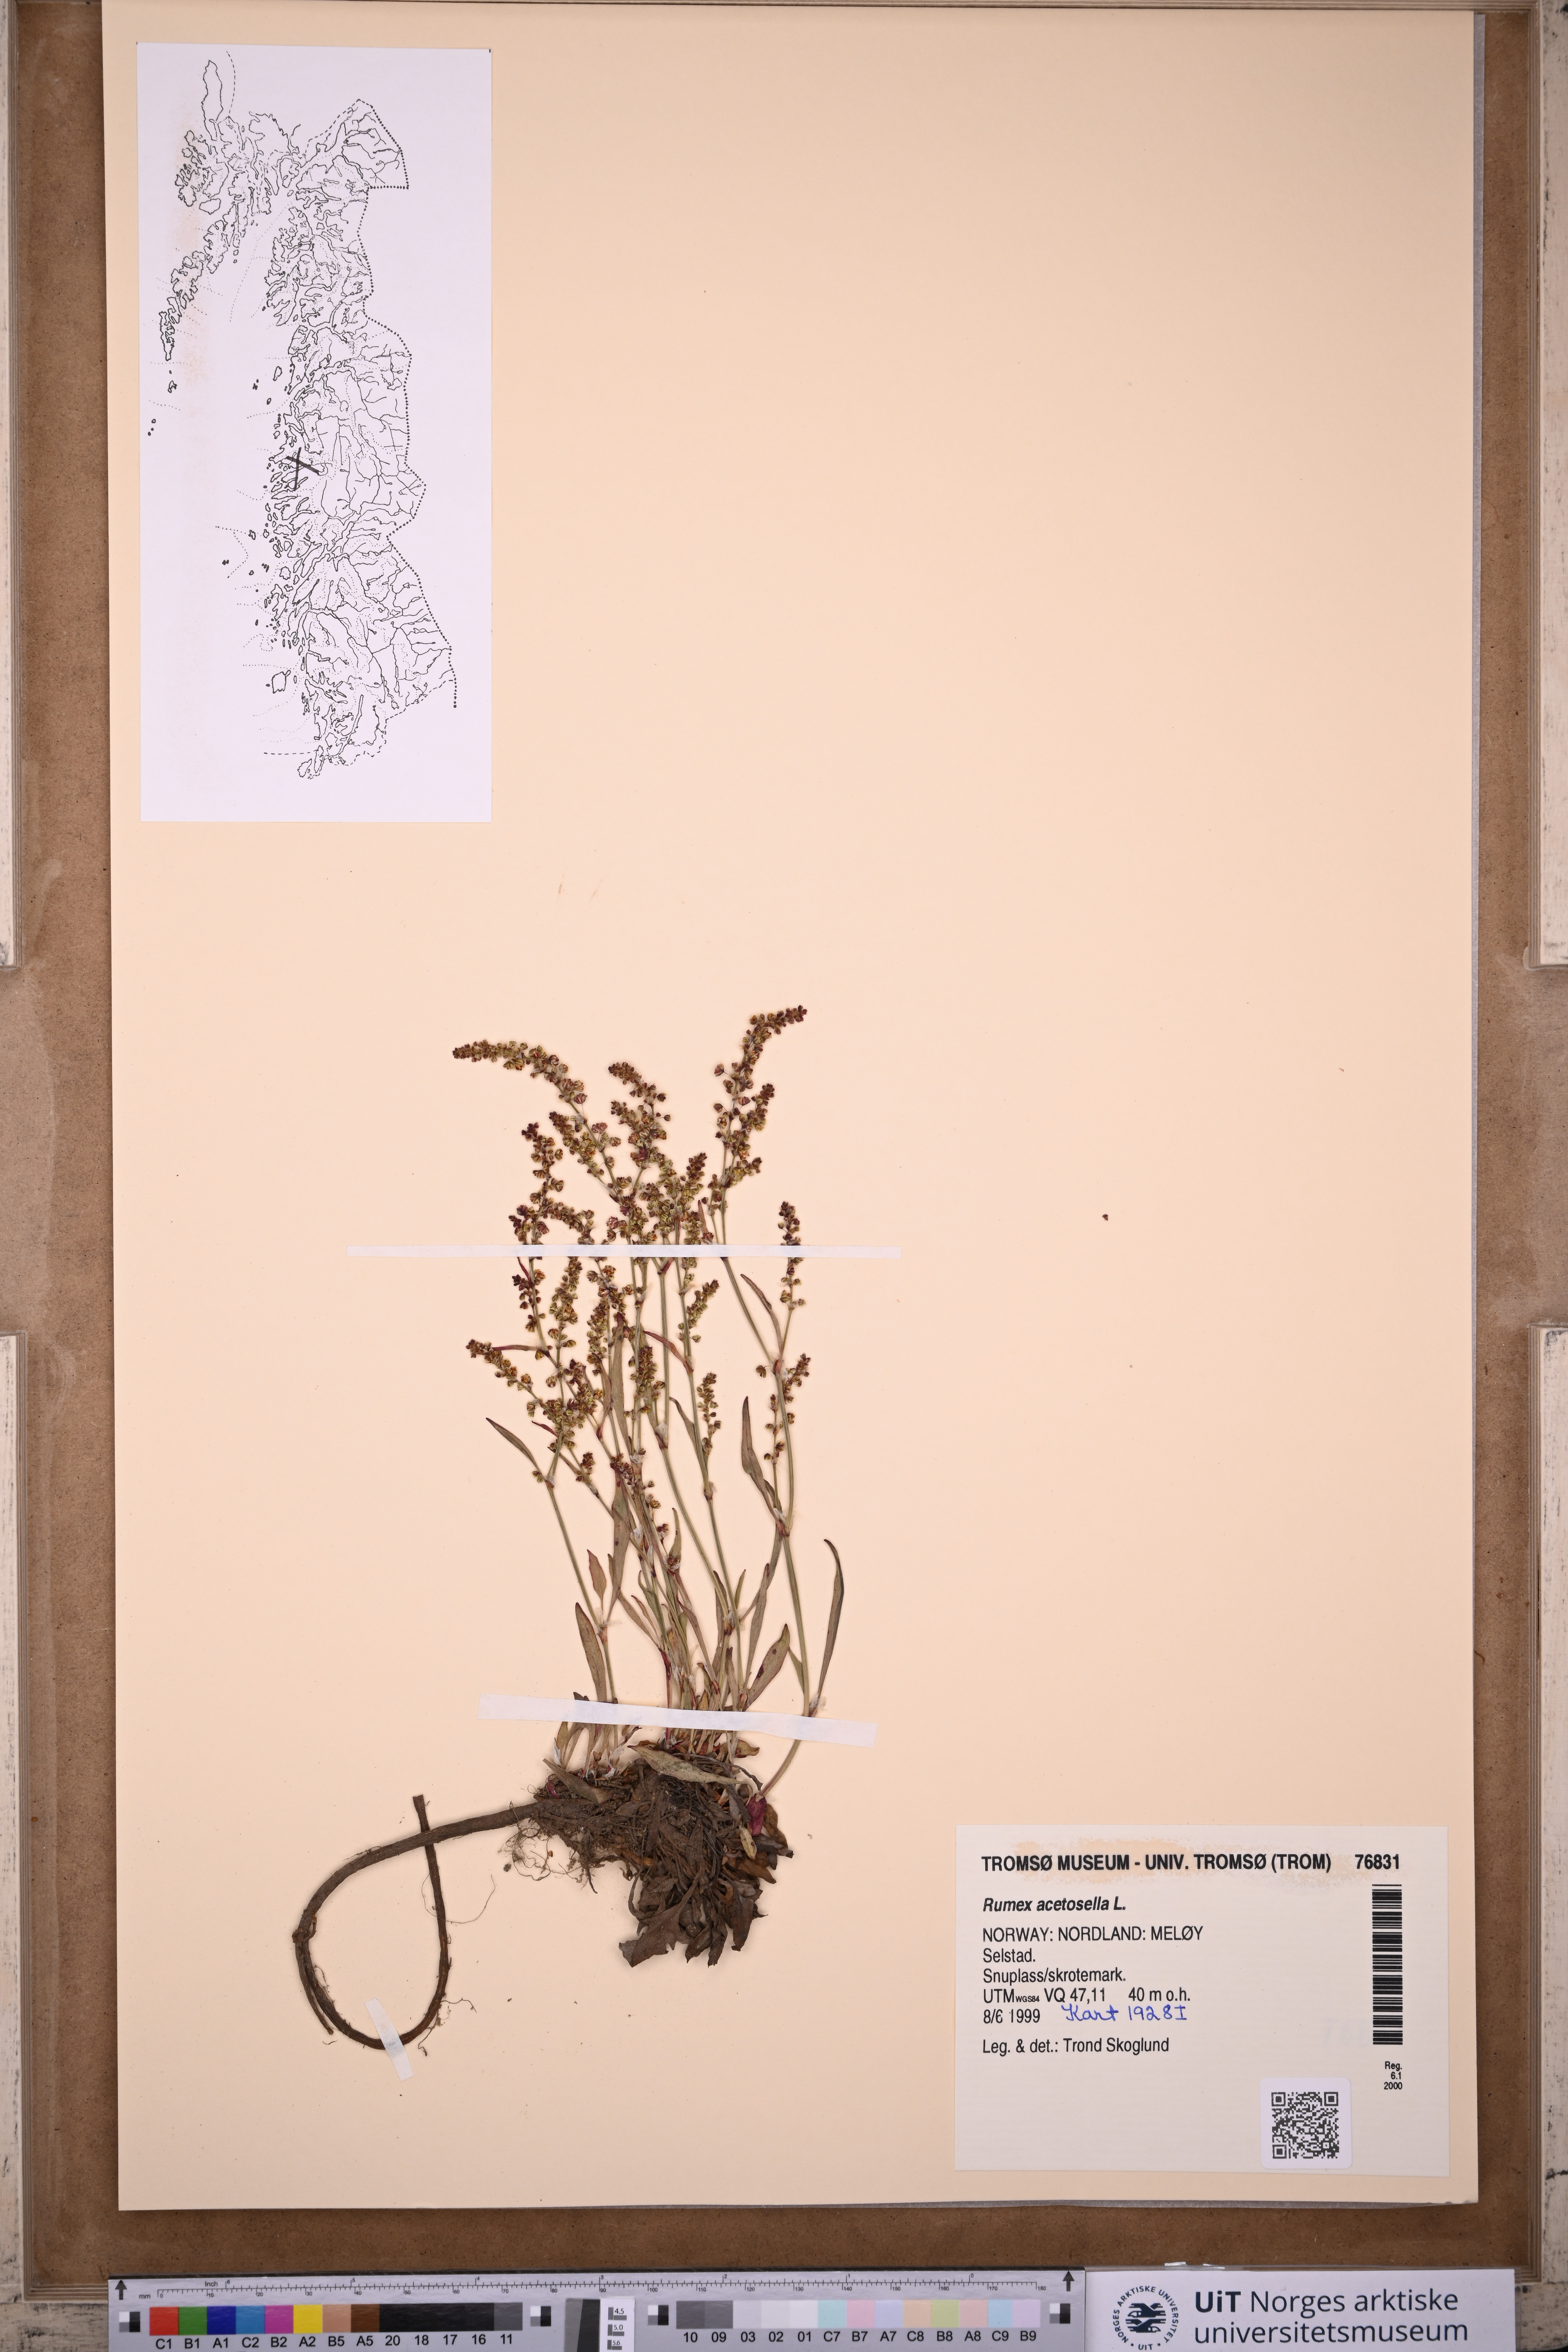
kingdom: Plantae
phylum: Tracheophyta
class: Magnoliopsida
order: Caryophyllales
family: Polygonaceae
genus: Rumex
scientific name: Rumex acetosella
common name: Common sheep sorrel
